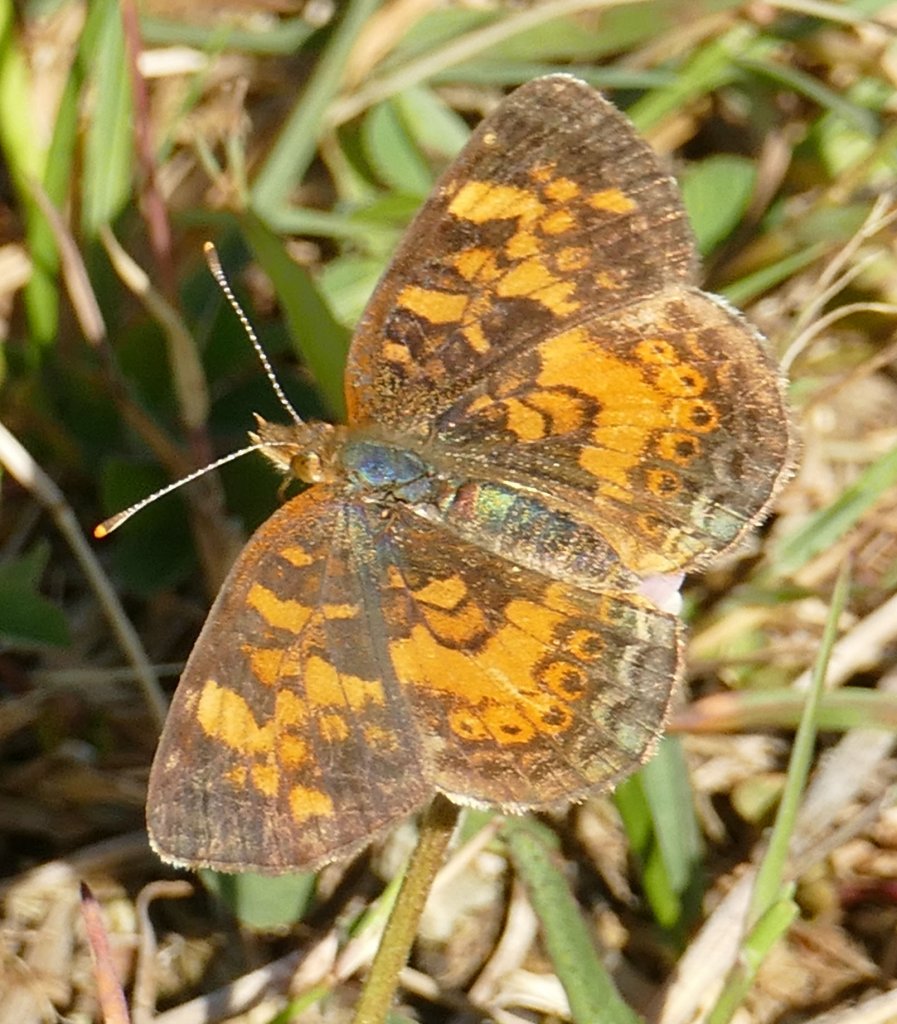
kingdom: Animalia
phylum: Arthropoda
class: Insecta
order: Lepidoptera
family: Nymphalidae
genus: Phyciodes
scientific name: Phyciodes tharos
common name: Northern Crescent
